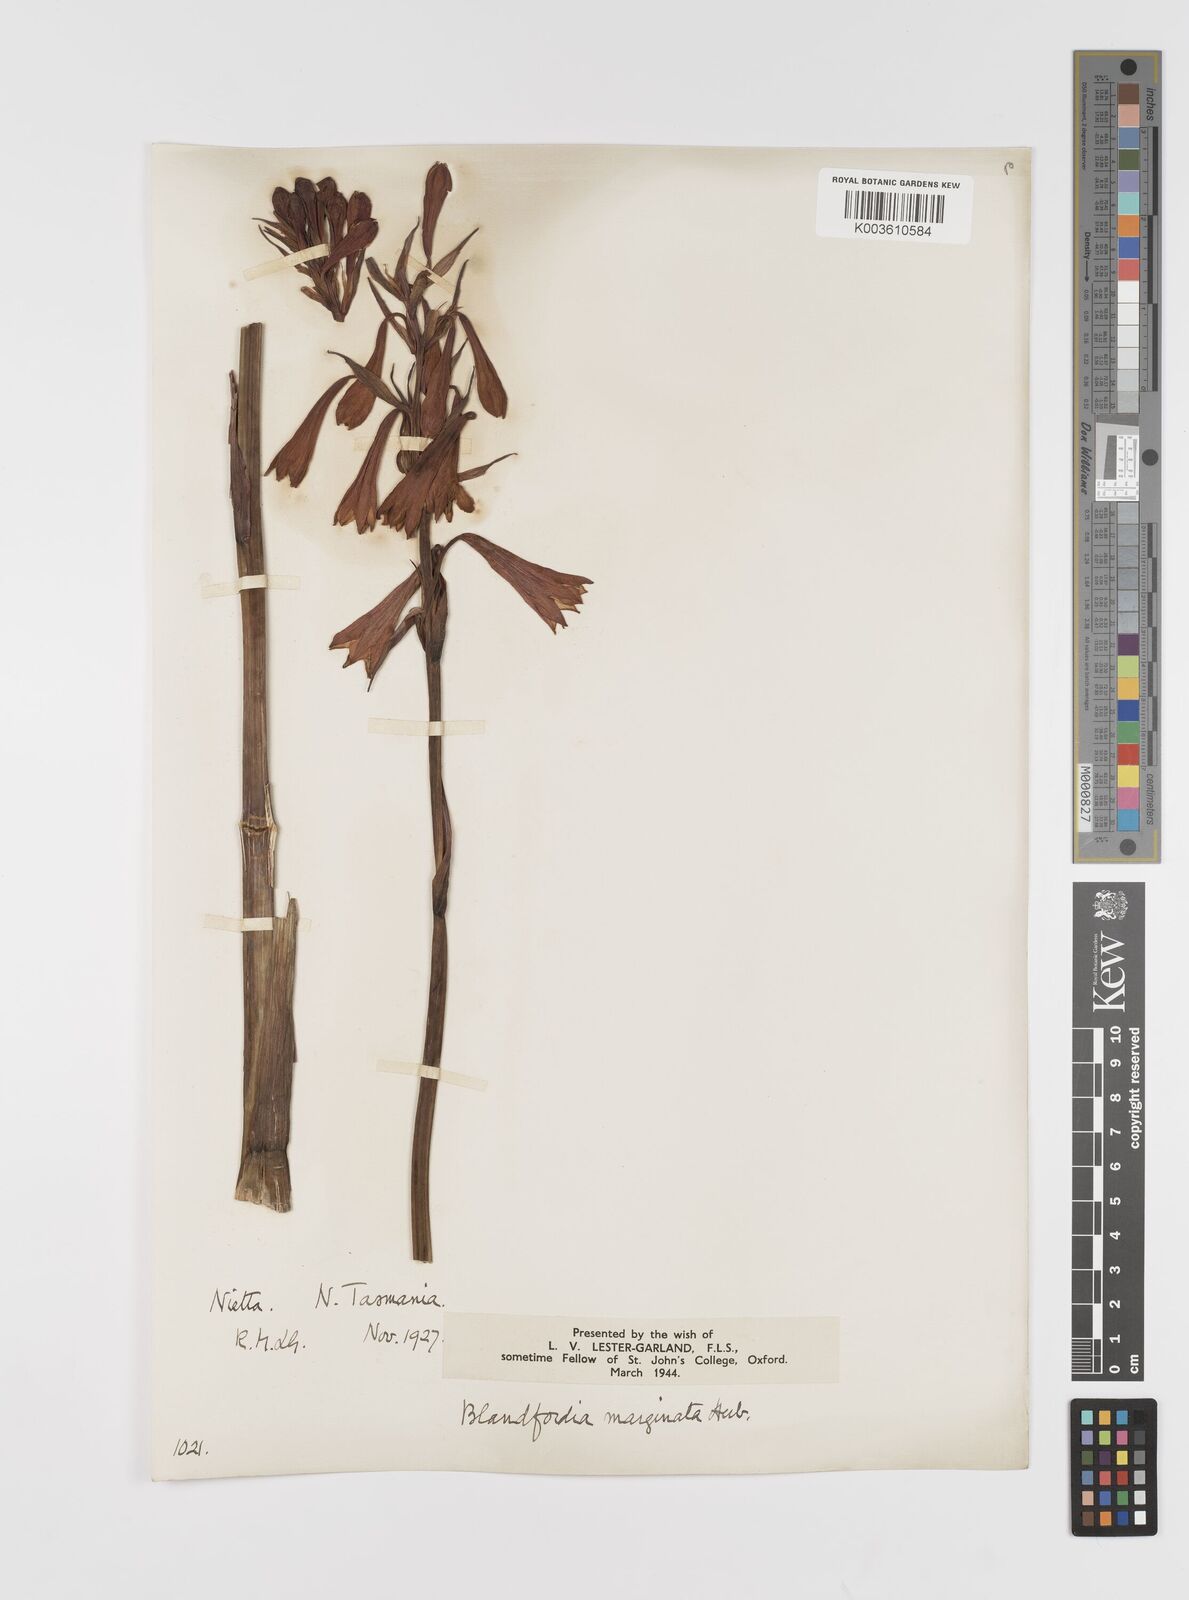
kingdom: Plantae
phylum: Tracheophyta
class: Liliopsida
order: Asparagales
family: Blandfordiaceae
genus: Blandfordia
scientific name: Blandfordia punicea
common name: Tasmanian christmas-bell
